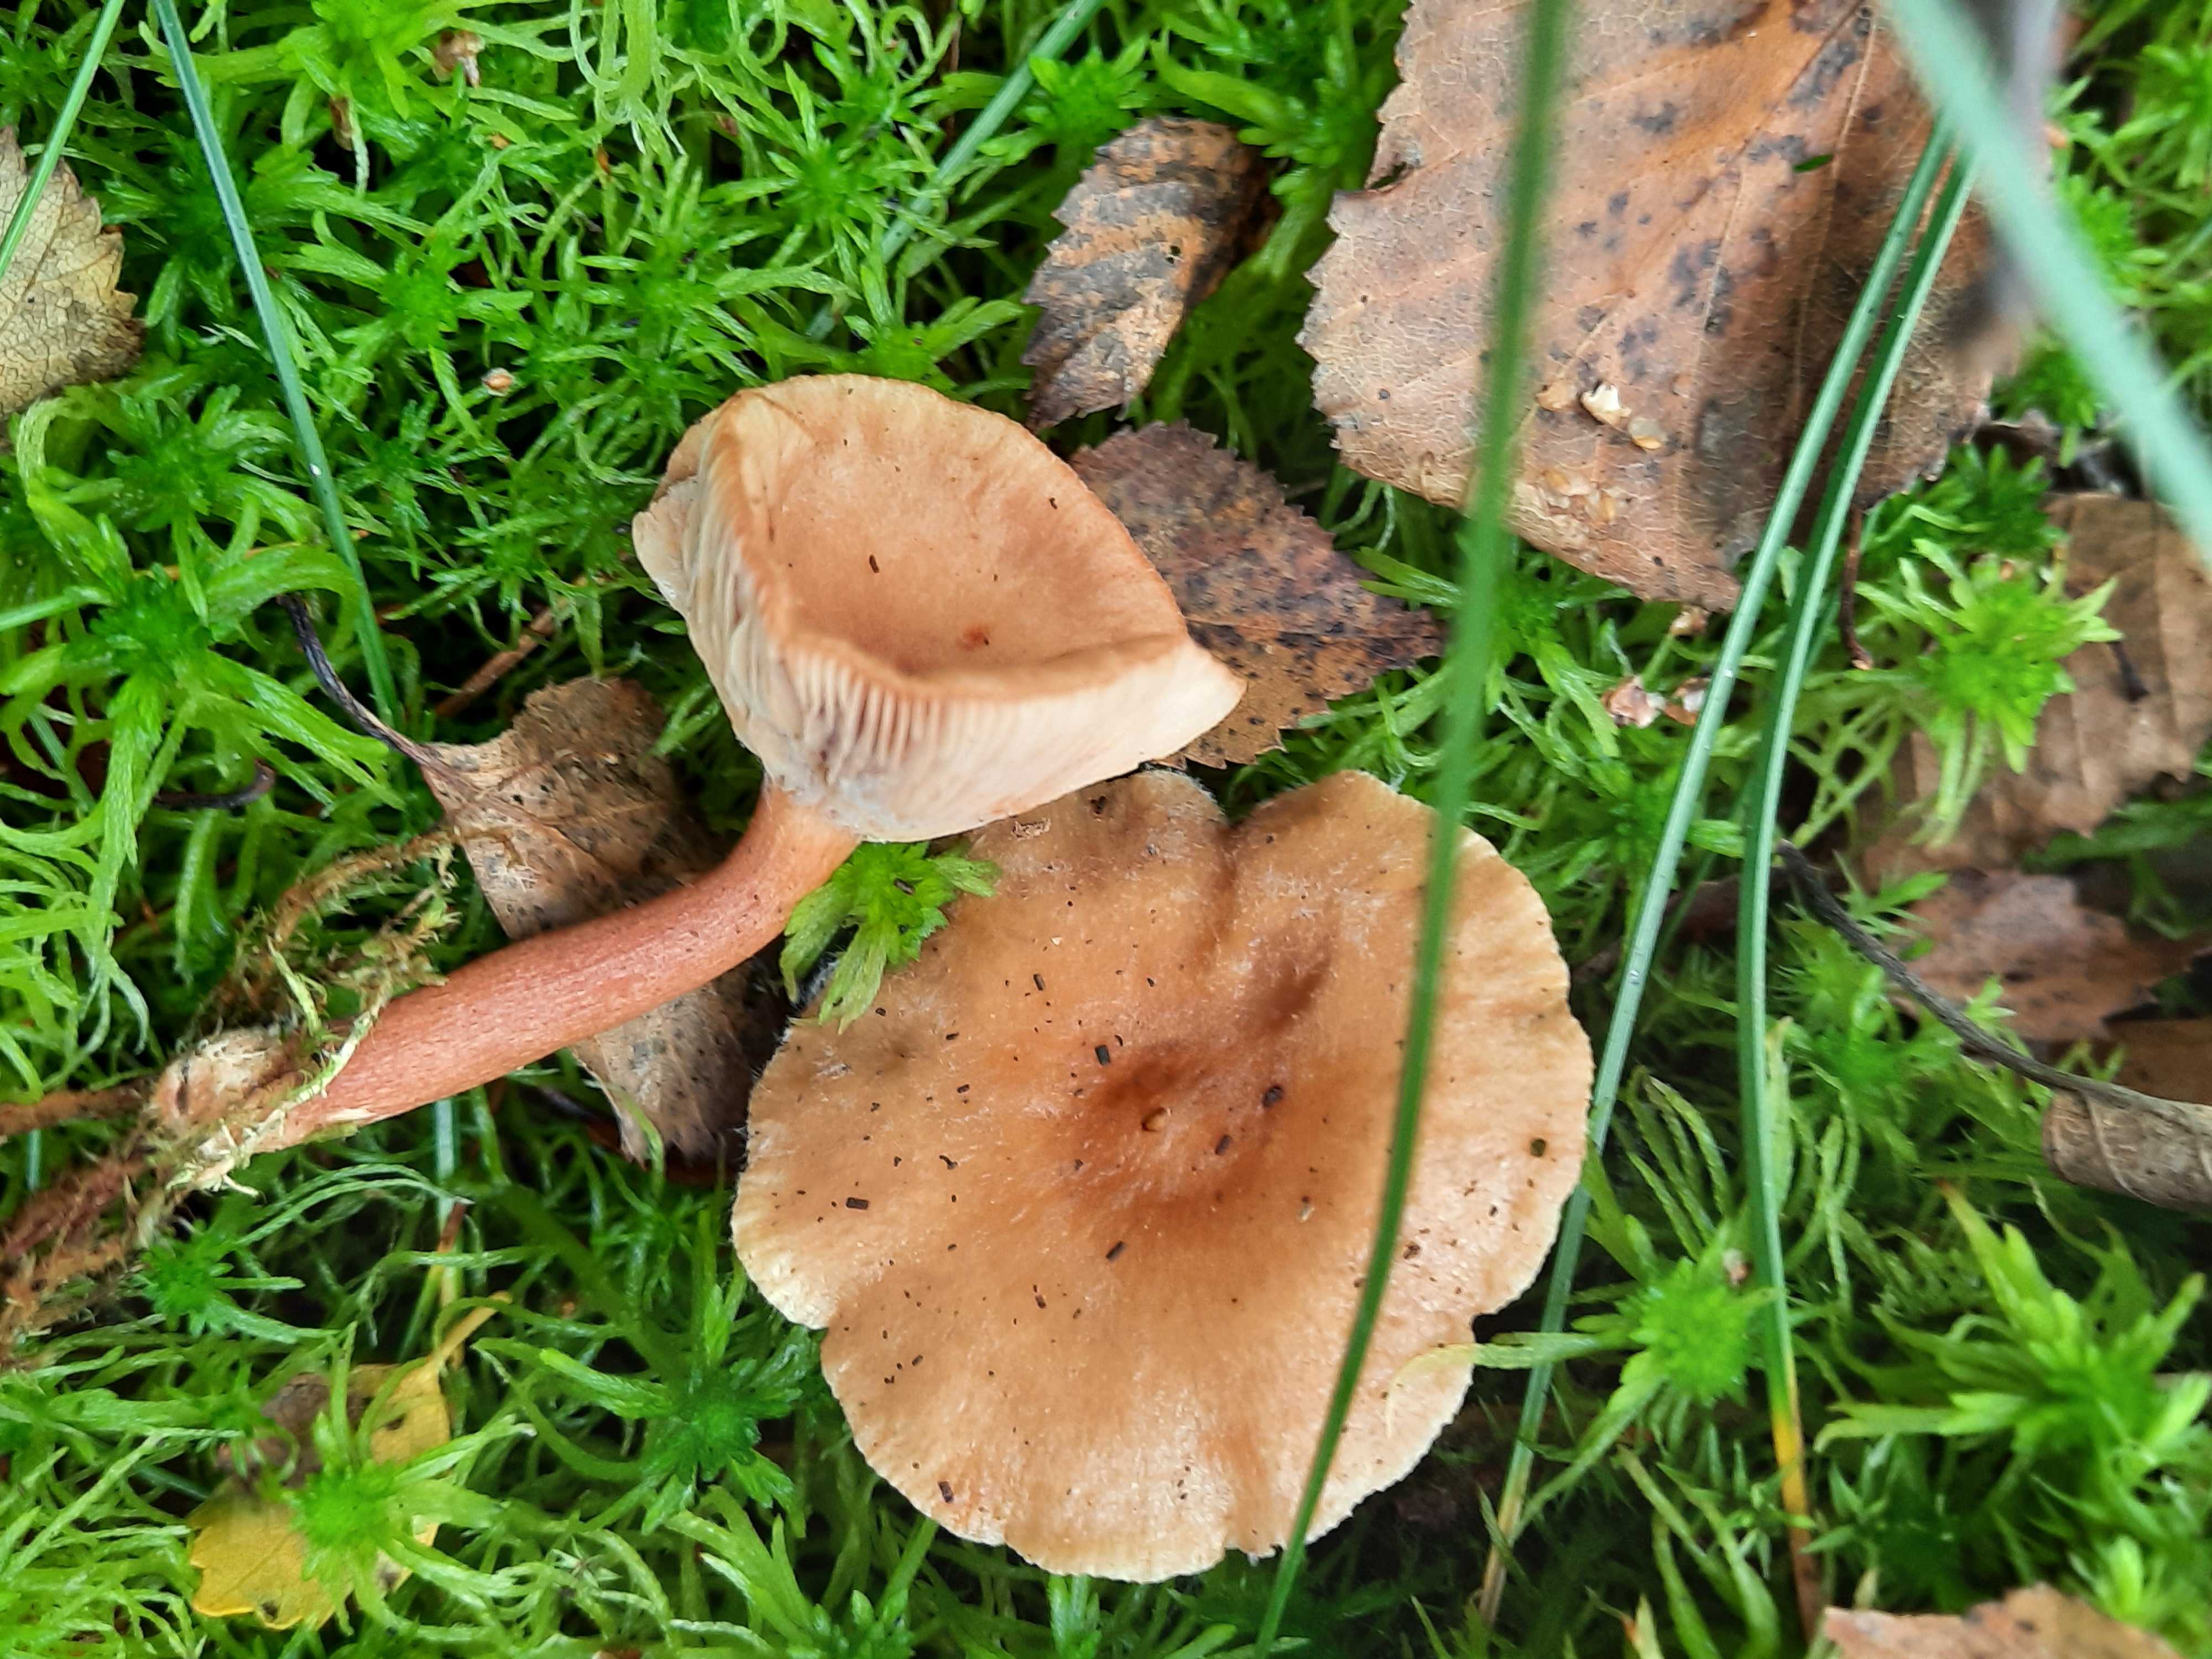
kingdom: Fungi
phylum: Basidiomycota
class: Agaricomycetes
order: Russulales
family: Russulaceae
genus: Lactarius
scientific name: Lactarius tabidus
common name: rynket mælkehat
